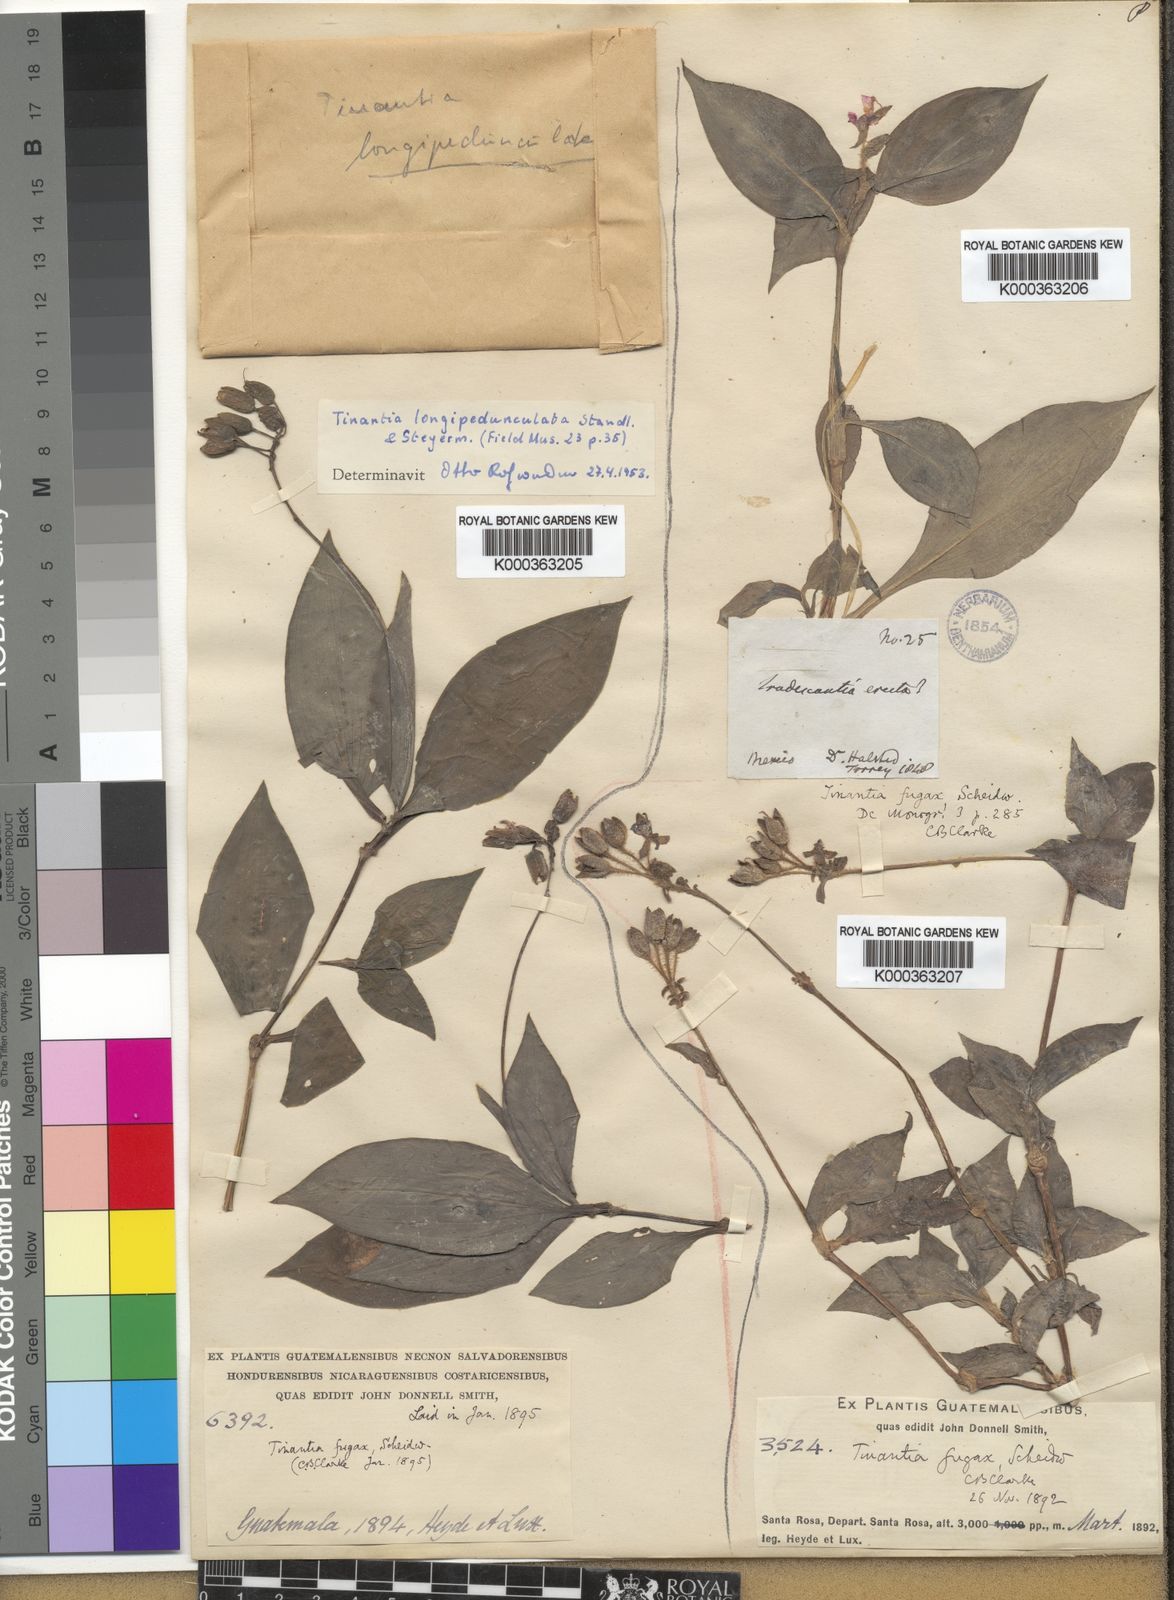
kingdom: Plantae
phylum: Tracheophyta
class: Liliopsida
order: Commelinales
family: Commelinaceae
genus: Tinantia
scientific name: Tinantia longipedunculata
